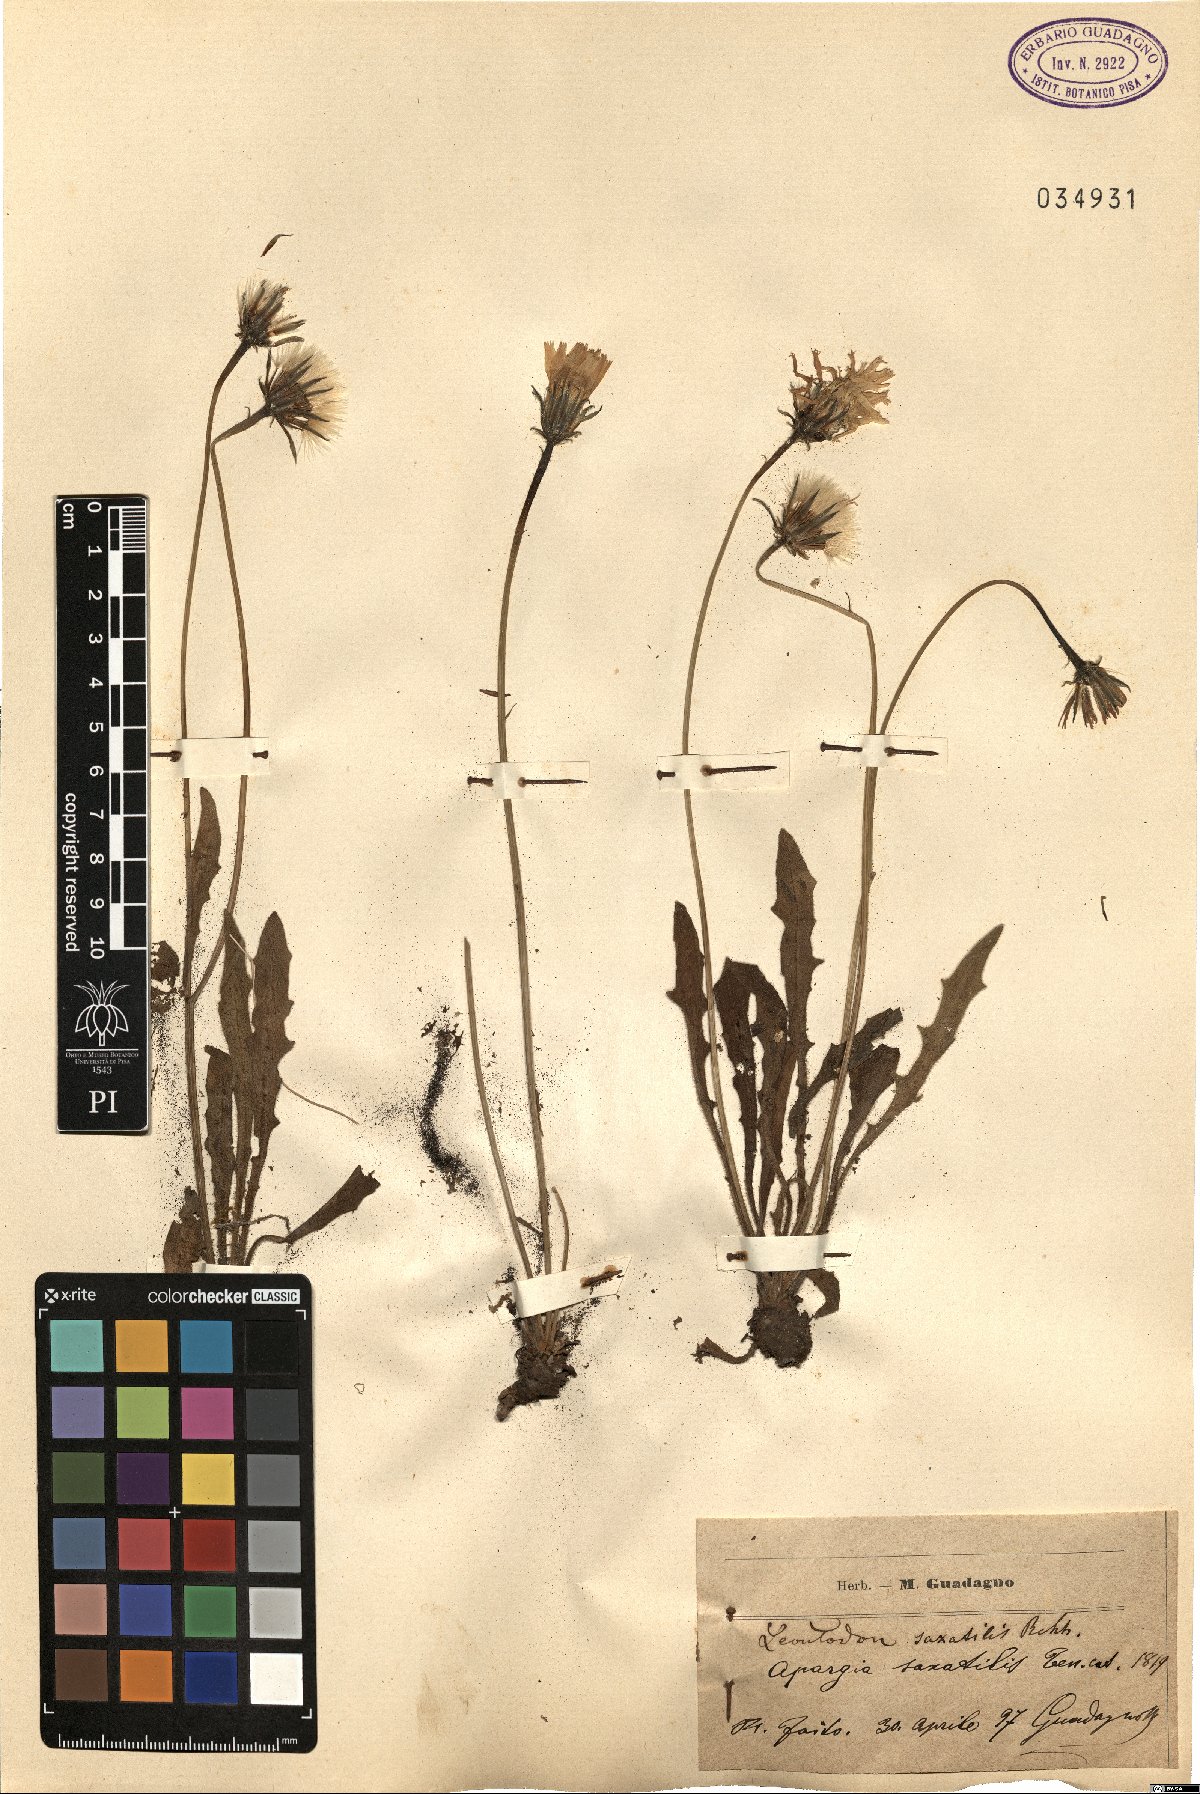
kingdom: Plantae
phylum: Tracheophyta
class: Magnoliopsida
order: Asterales
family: Asteraceae
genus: Thrincia
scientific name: Thrincia saxatilis
